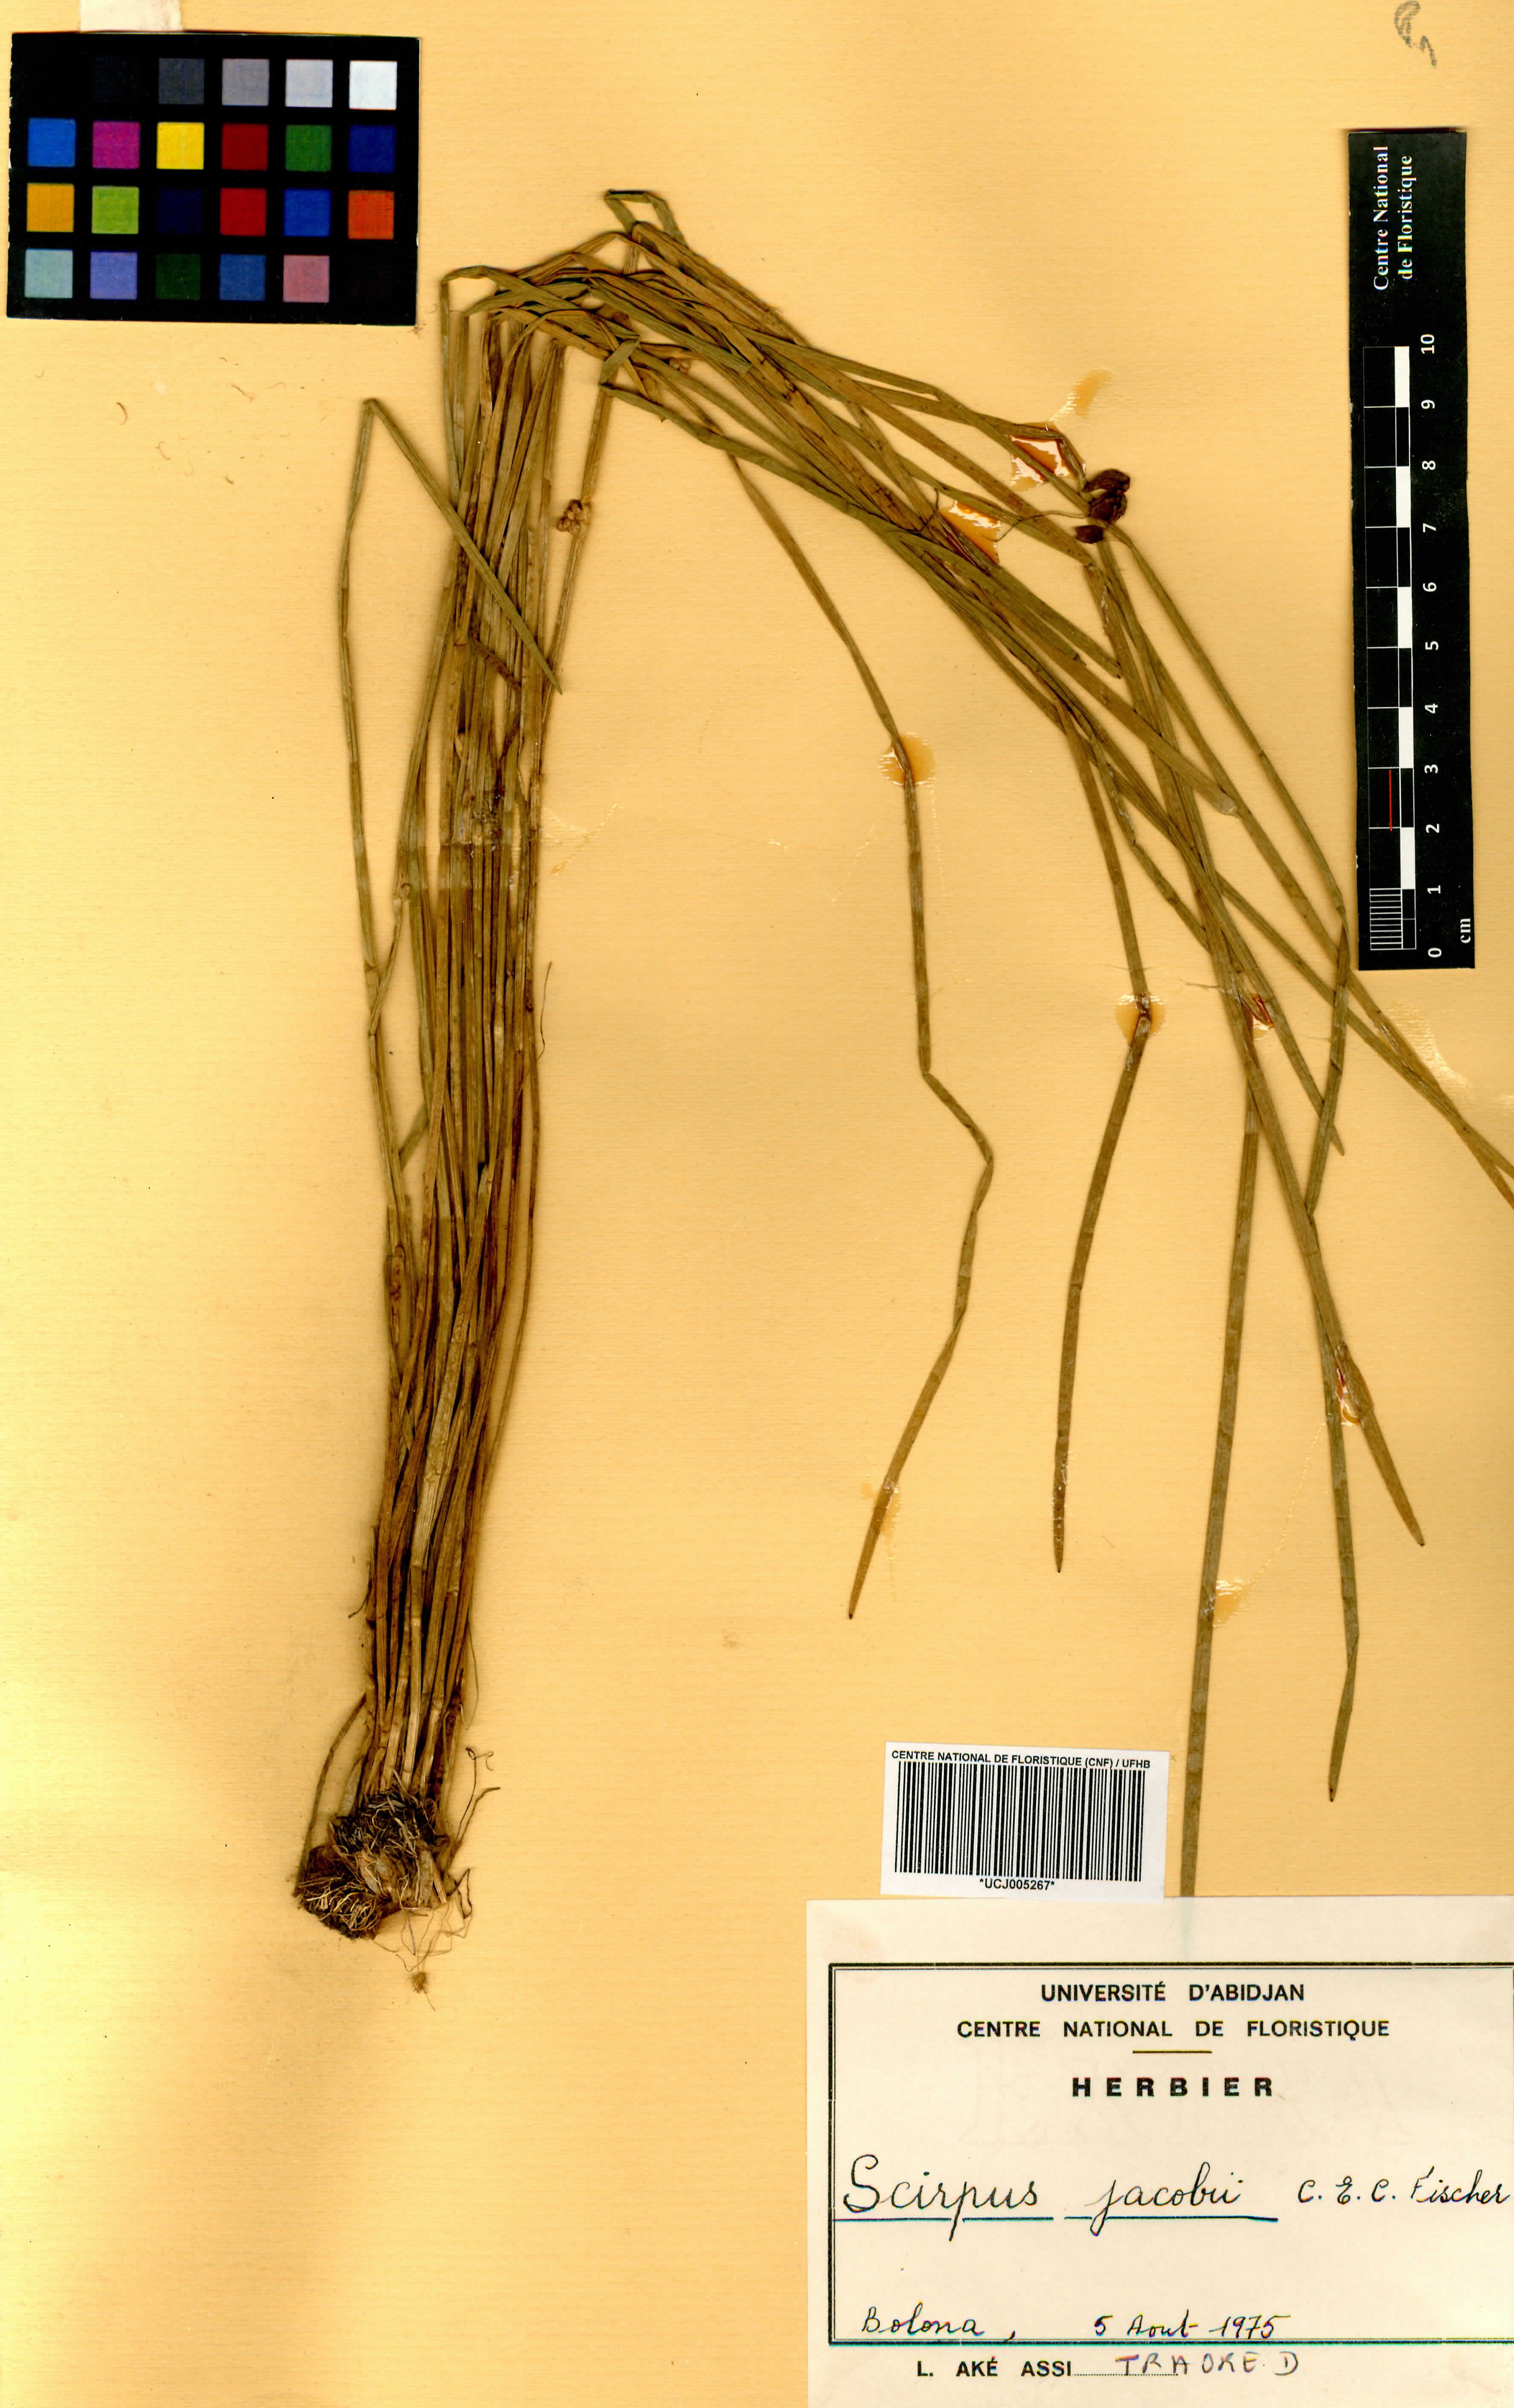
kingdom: Plantae
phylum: Tracheophyta
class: Liliopsida
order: Poales
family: Cyperaceae
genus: Schoenoplectiella
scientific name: Schoenoplectiella senegalensis
